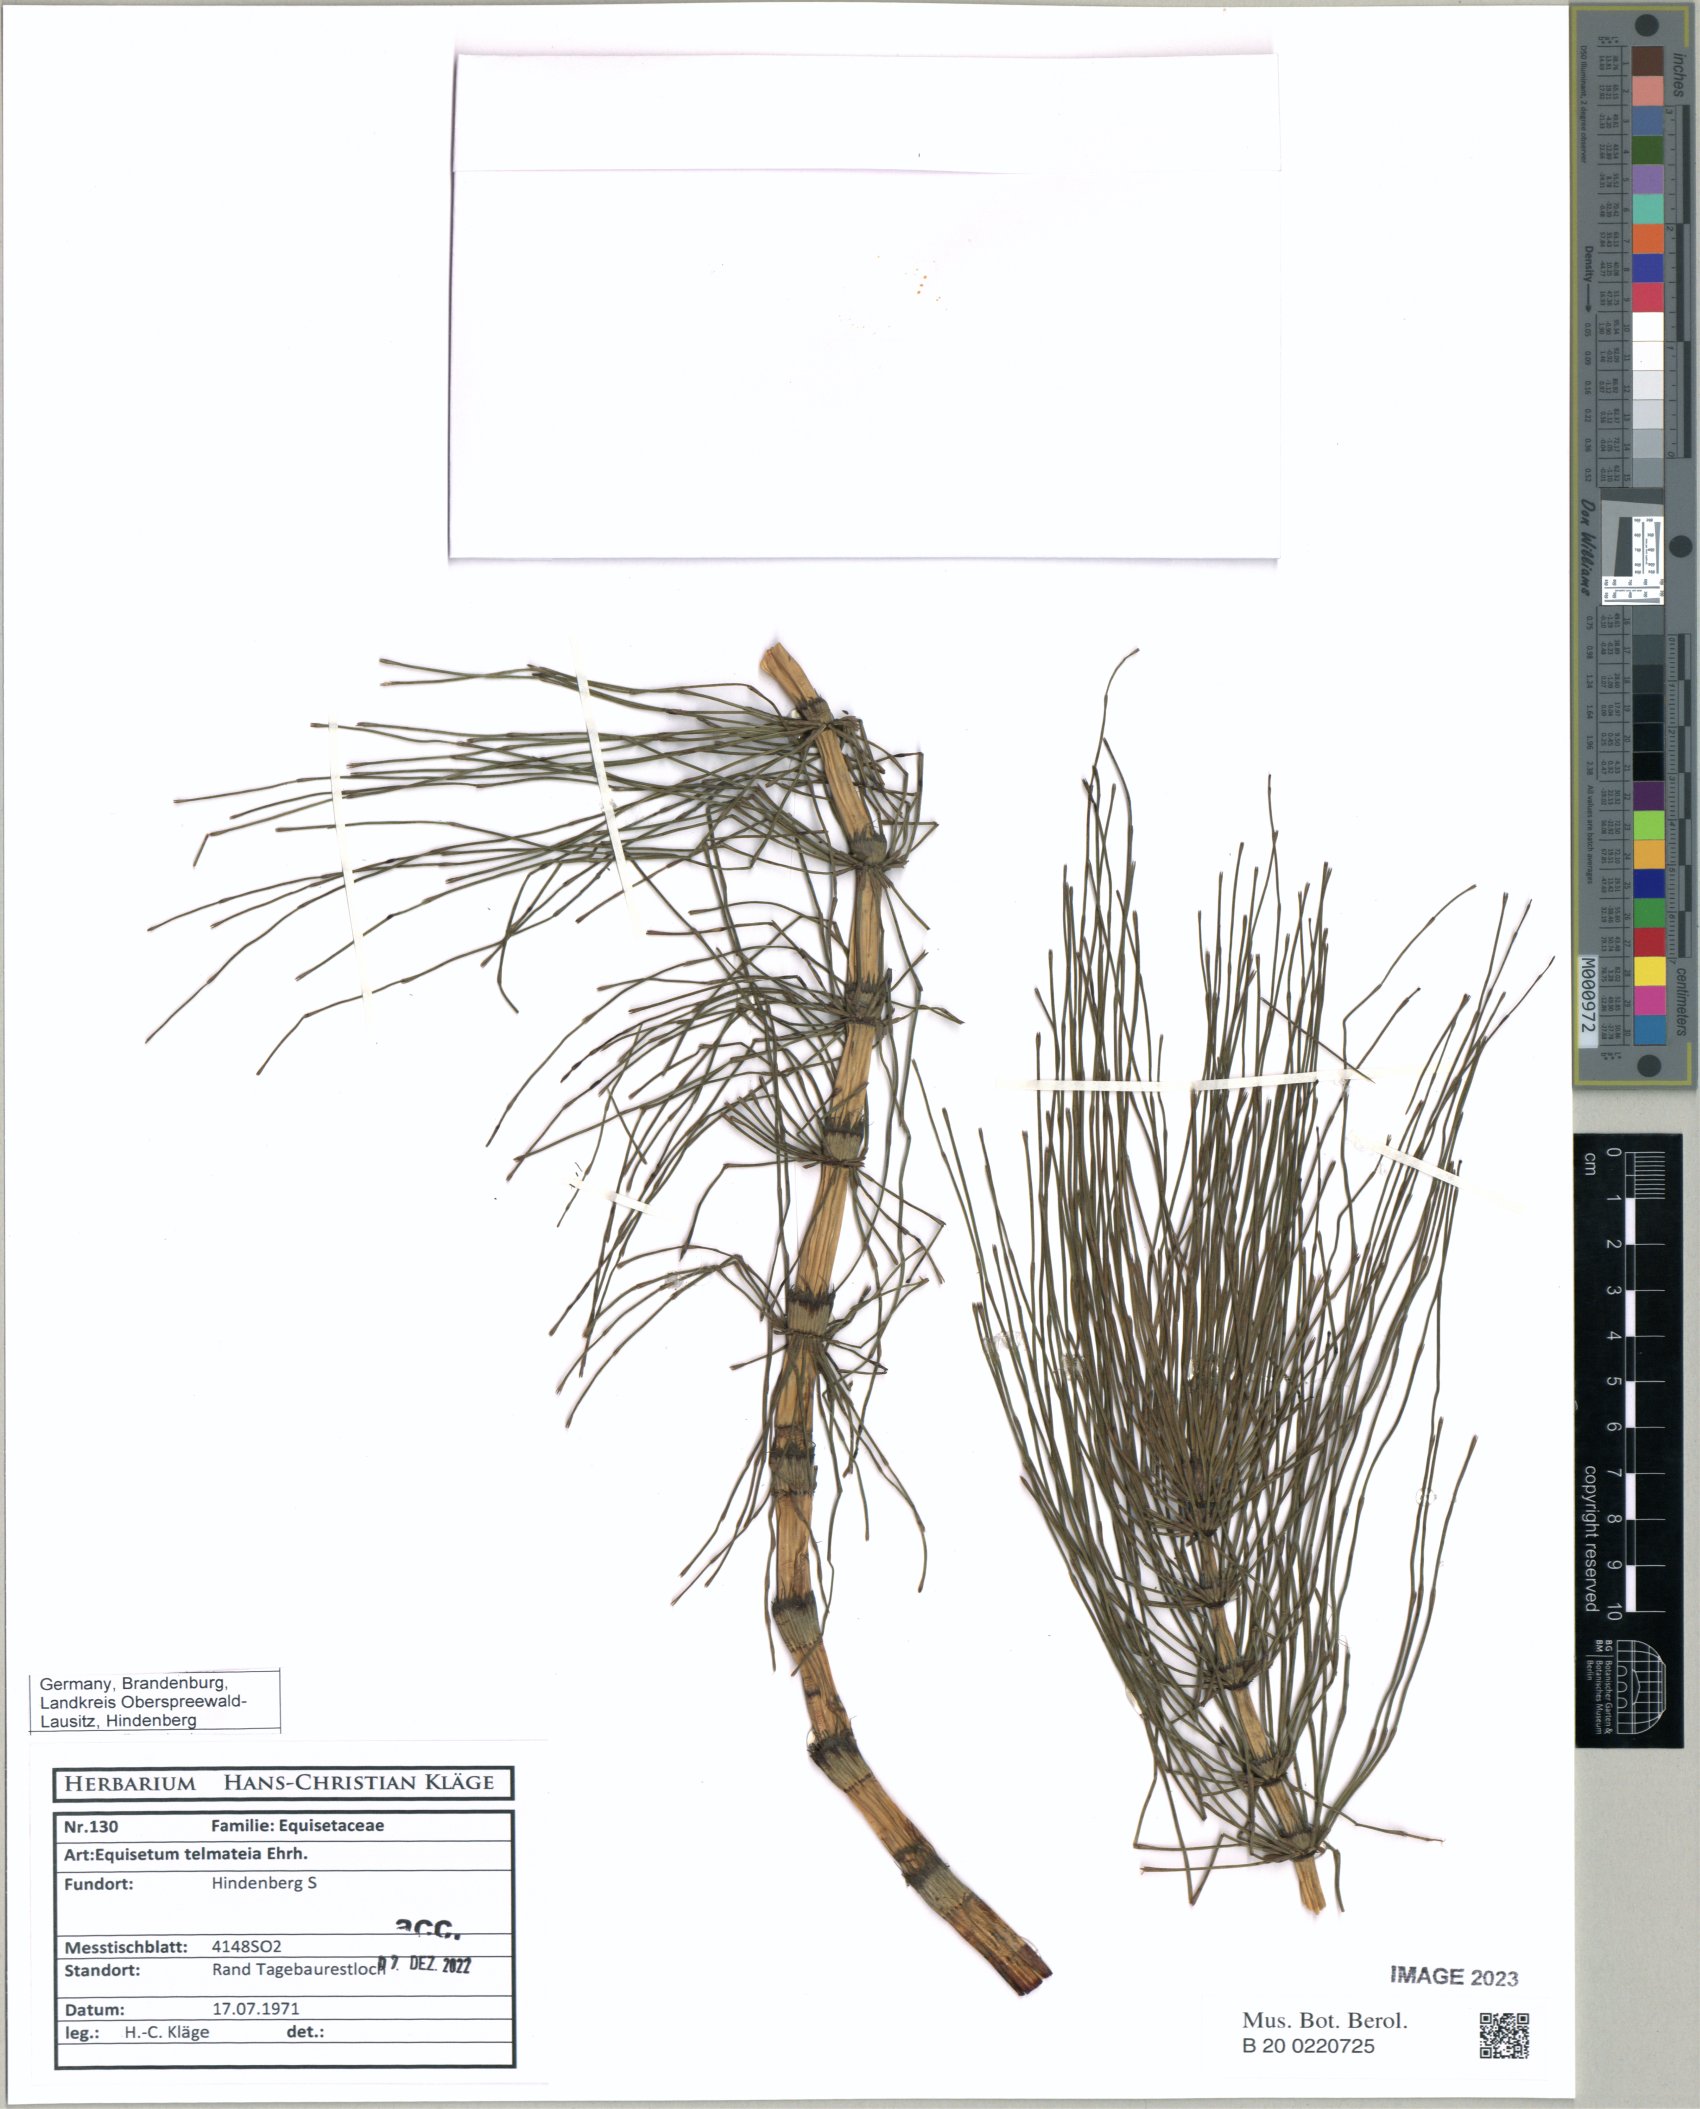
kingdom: Plantae
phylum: Tracheophyta
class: Polypodiopsida
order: Equisetales
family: Equisetaceae
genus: Equisetum
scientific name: Equisetum telmateia
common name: Great horsetail
